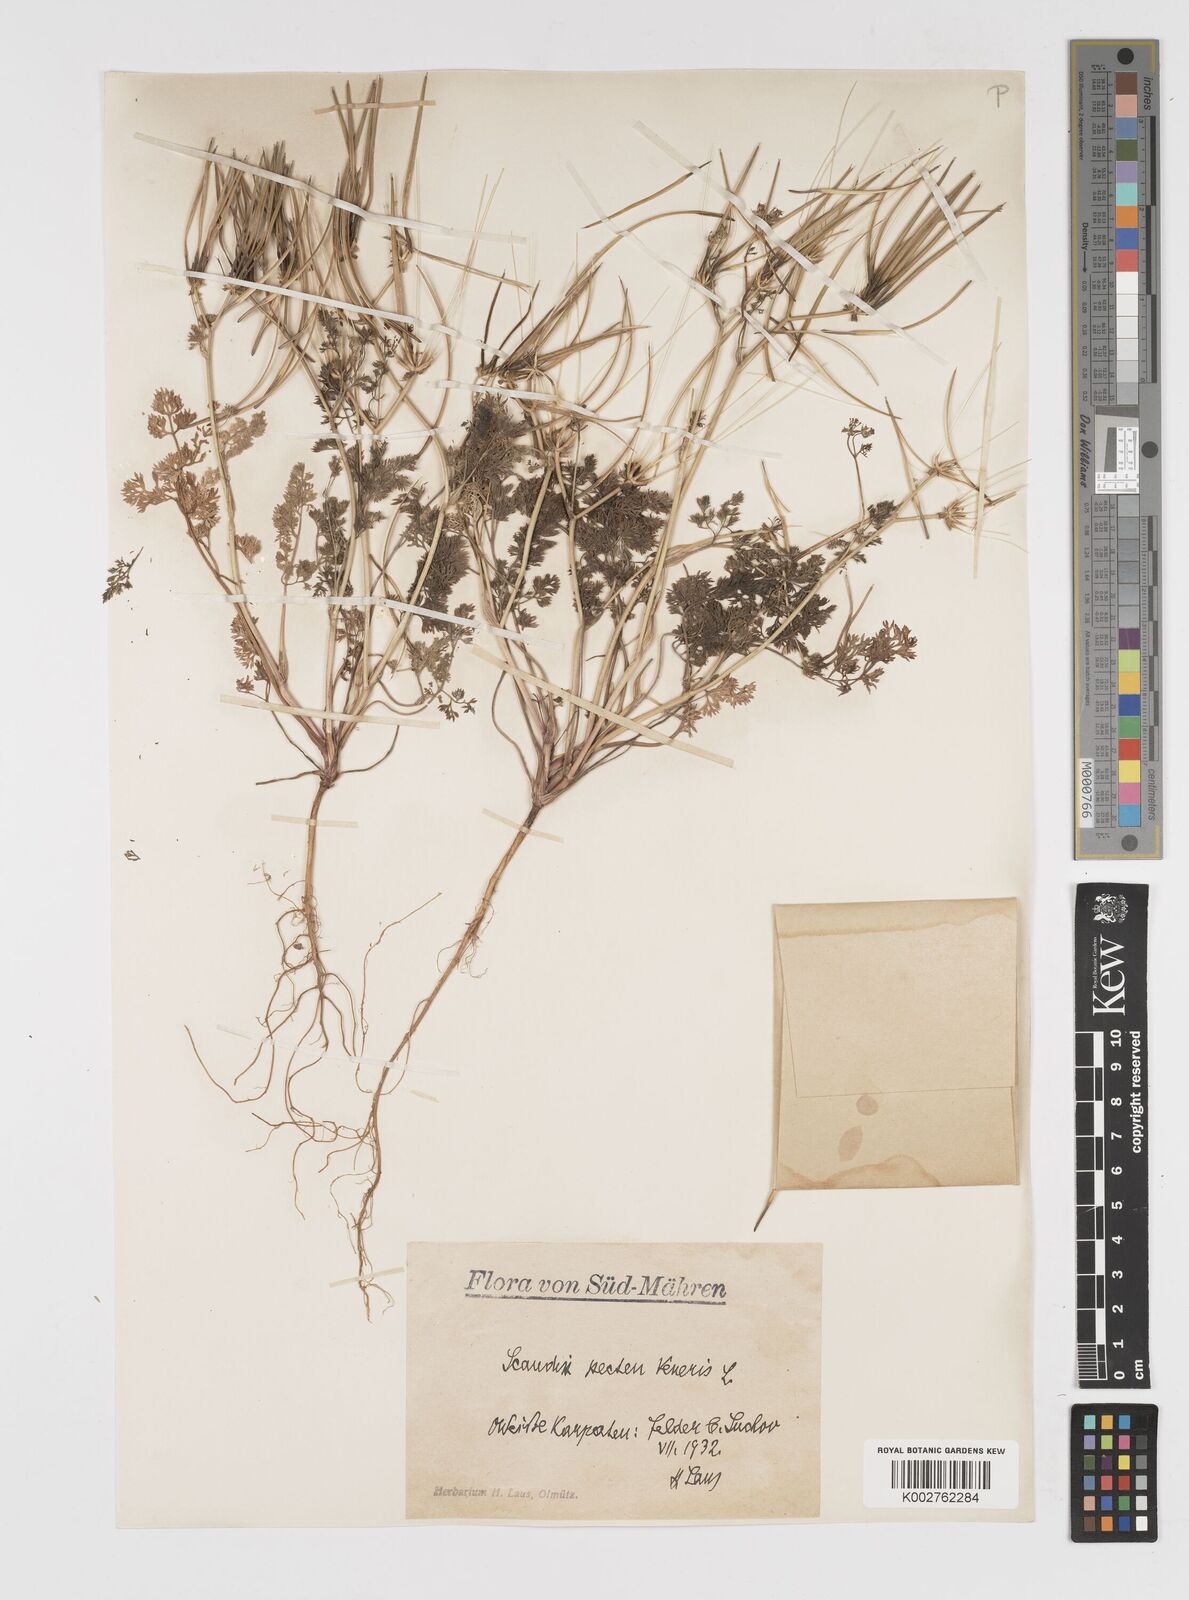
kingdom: Plantae
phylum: Tracheophyta
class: Magnoliopsida
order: Apiales
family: Apiaceae
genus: Scandix
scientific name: Scandix pecten-veneris
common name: Shepherd's-needle
